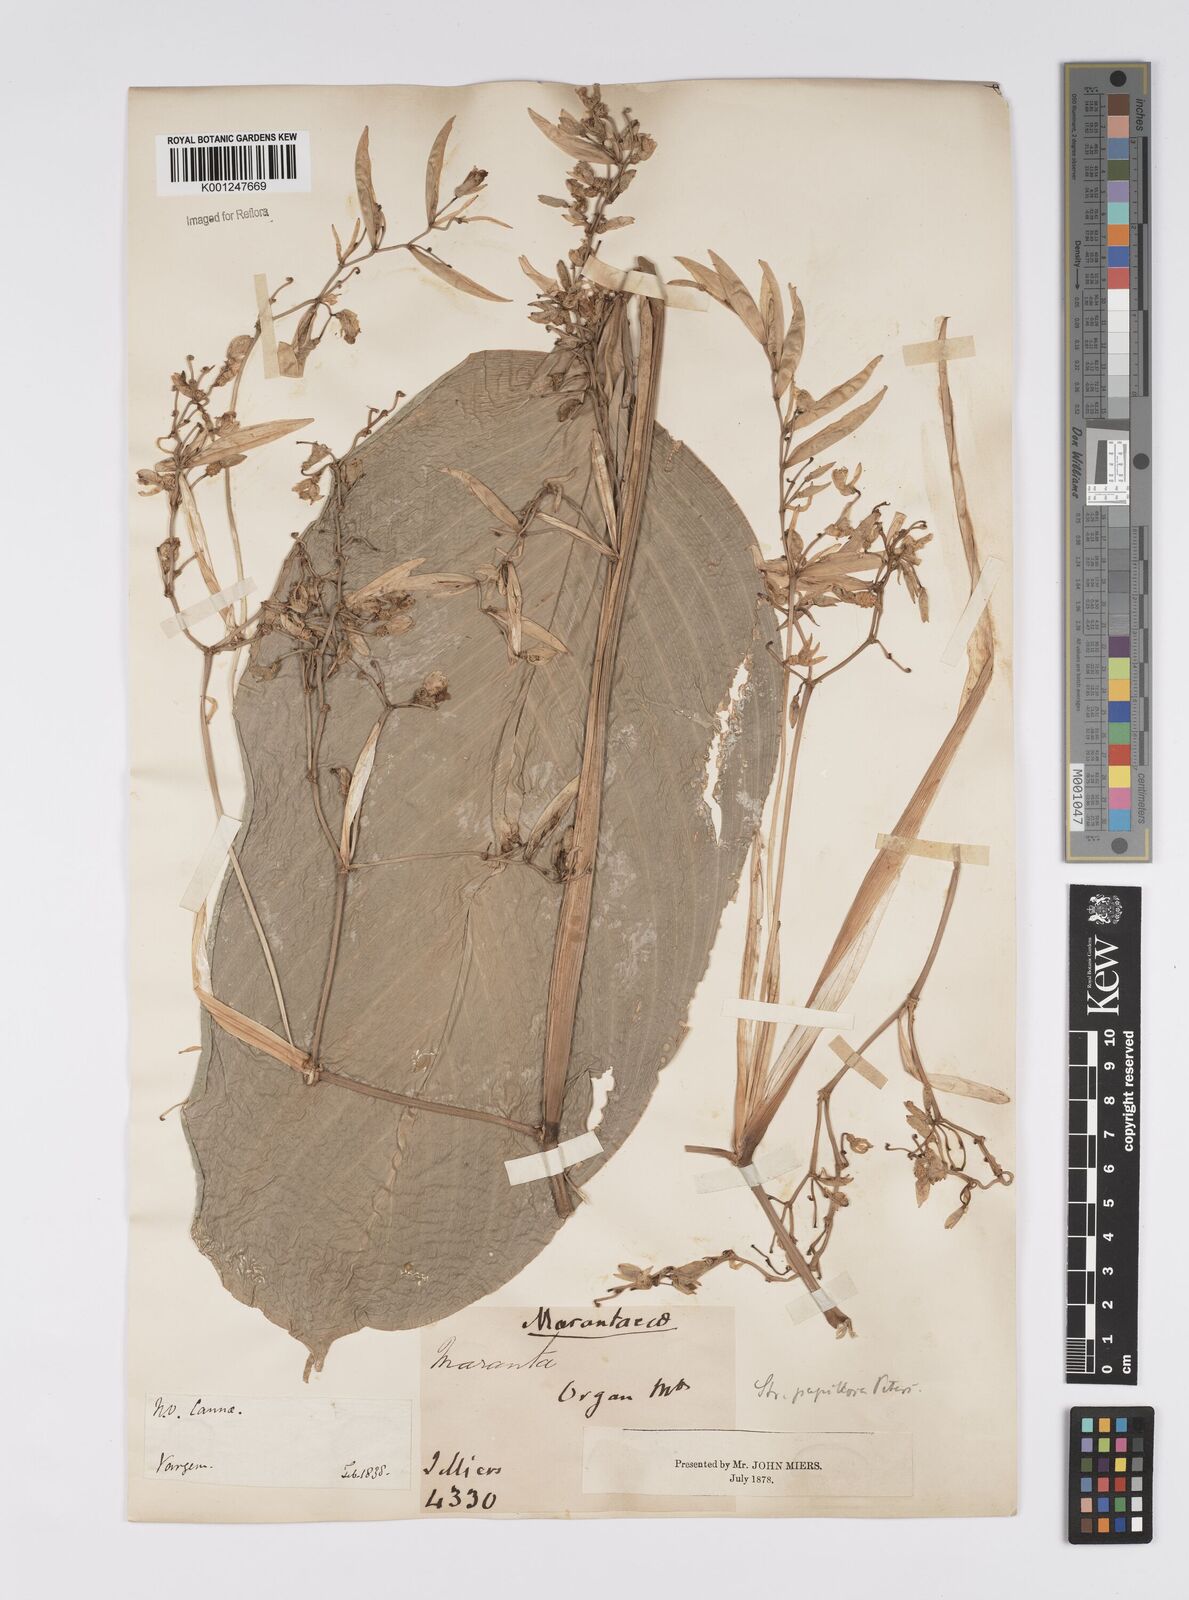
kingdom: Plantae
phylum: Tracheophyta
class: Liliopsida
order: Zingiberales
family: Marantaceae
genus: Stromanthe
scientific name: Stromanthe papillosa
